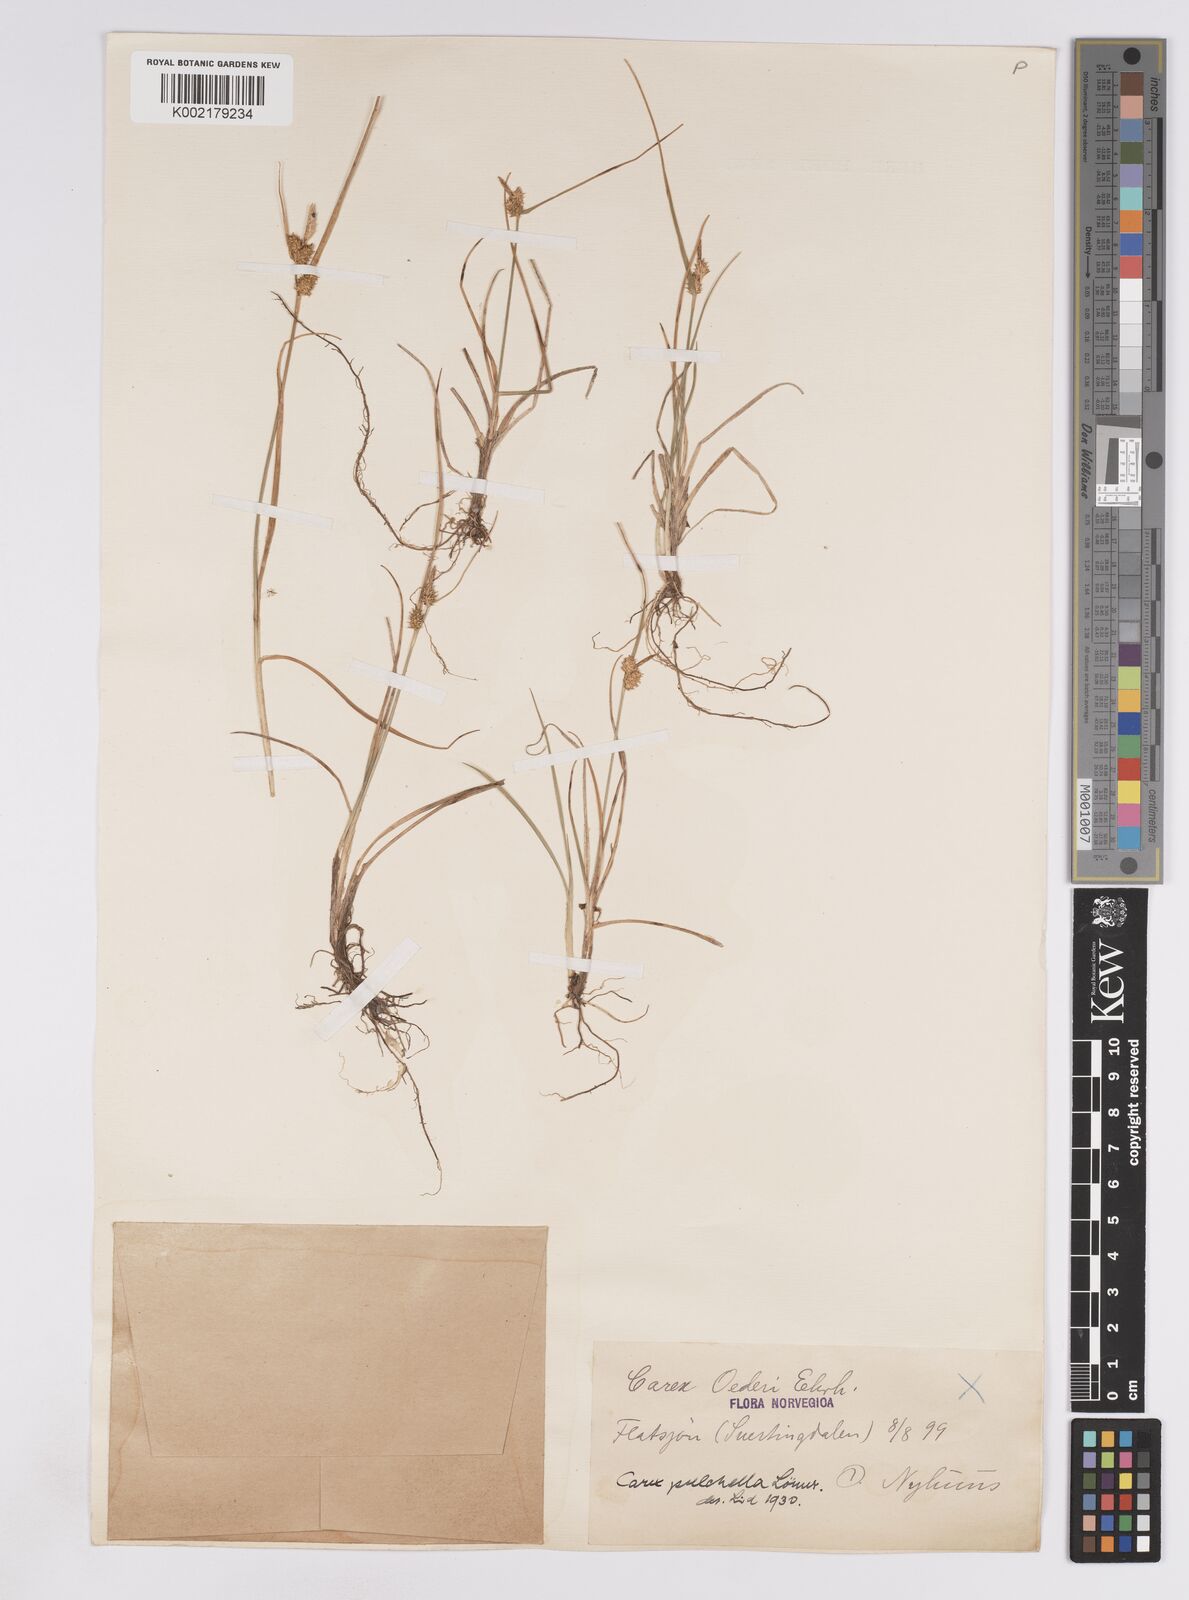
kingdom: Plantae
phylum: Tracheophyta
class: Liliopsida
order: Poales
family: Cyperaceae
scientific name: Cyperaceae
